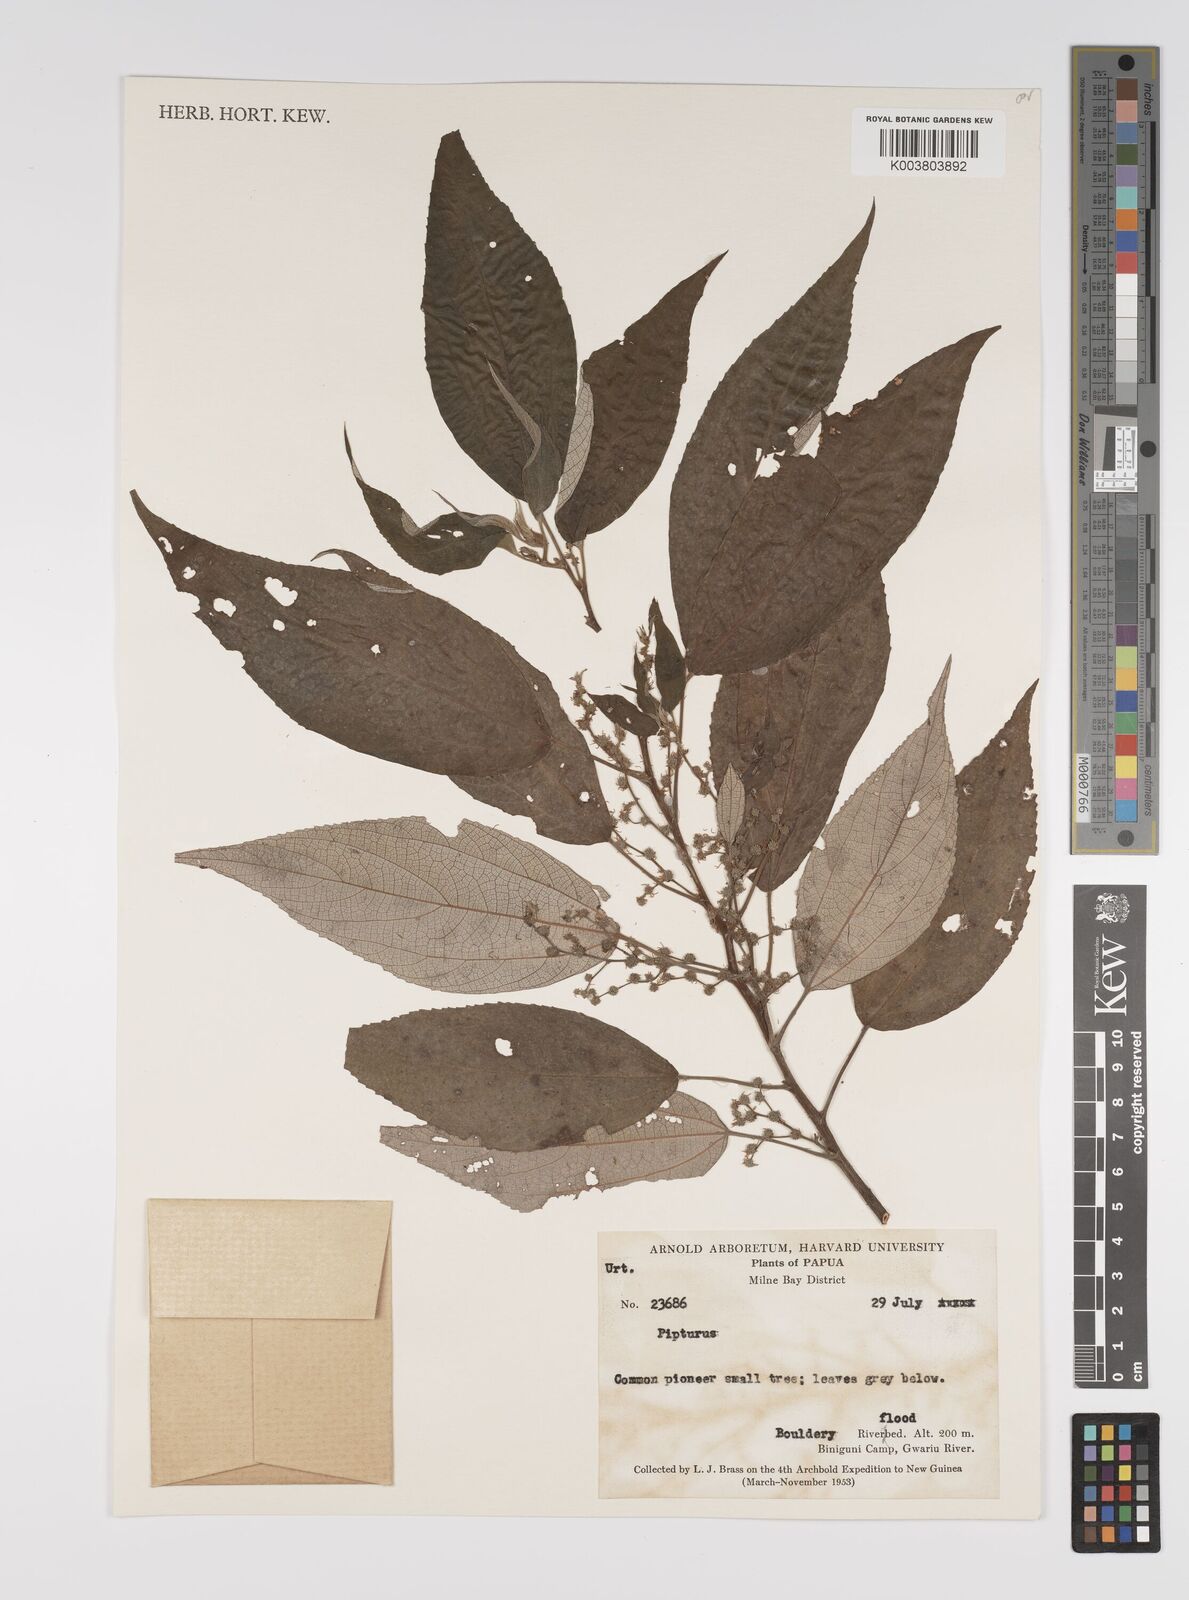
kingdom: Plantae
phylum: Tracheophyta
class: Magnoliopsida
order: Rosales
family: Urticaceae
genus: Pipturus
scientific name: Pipturus argenteus
